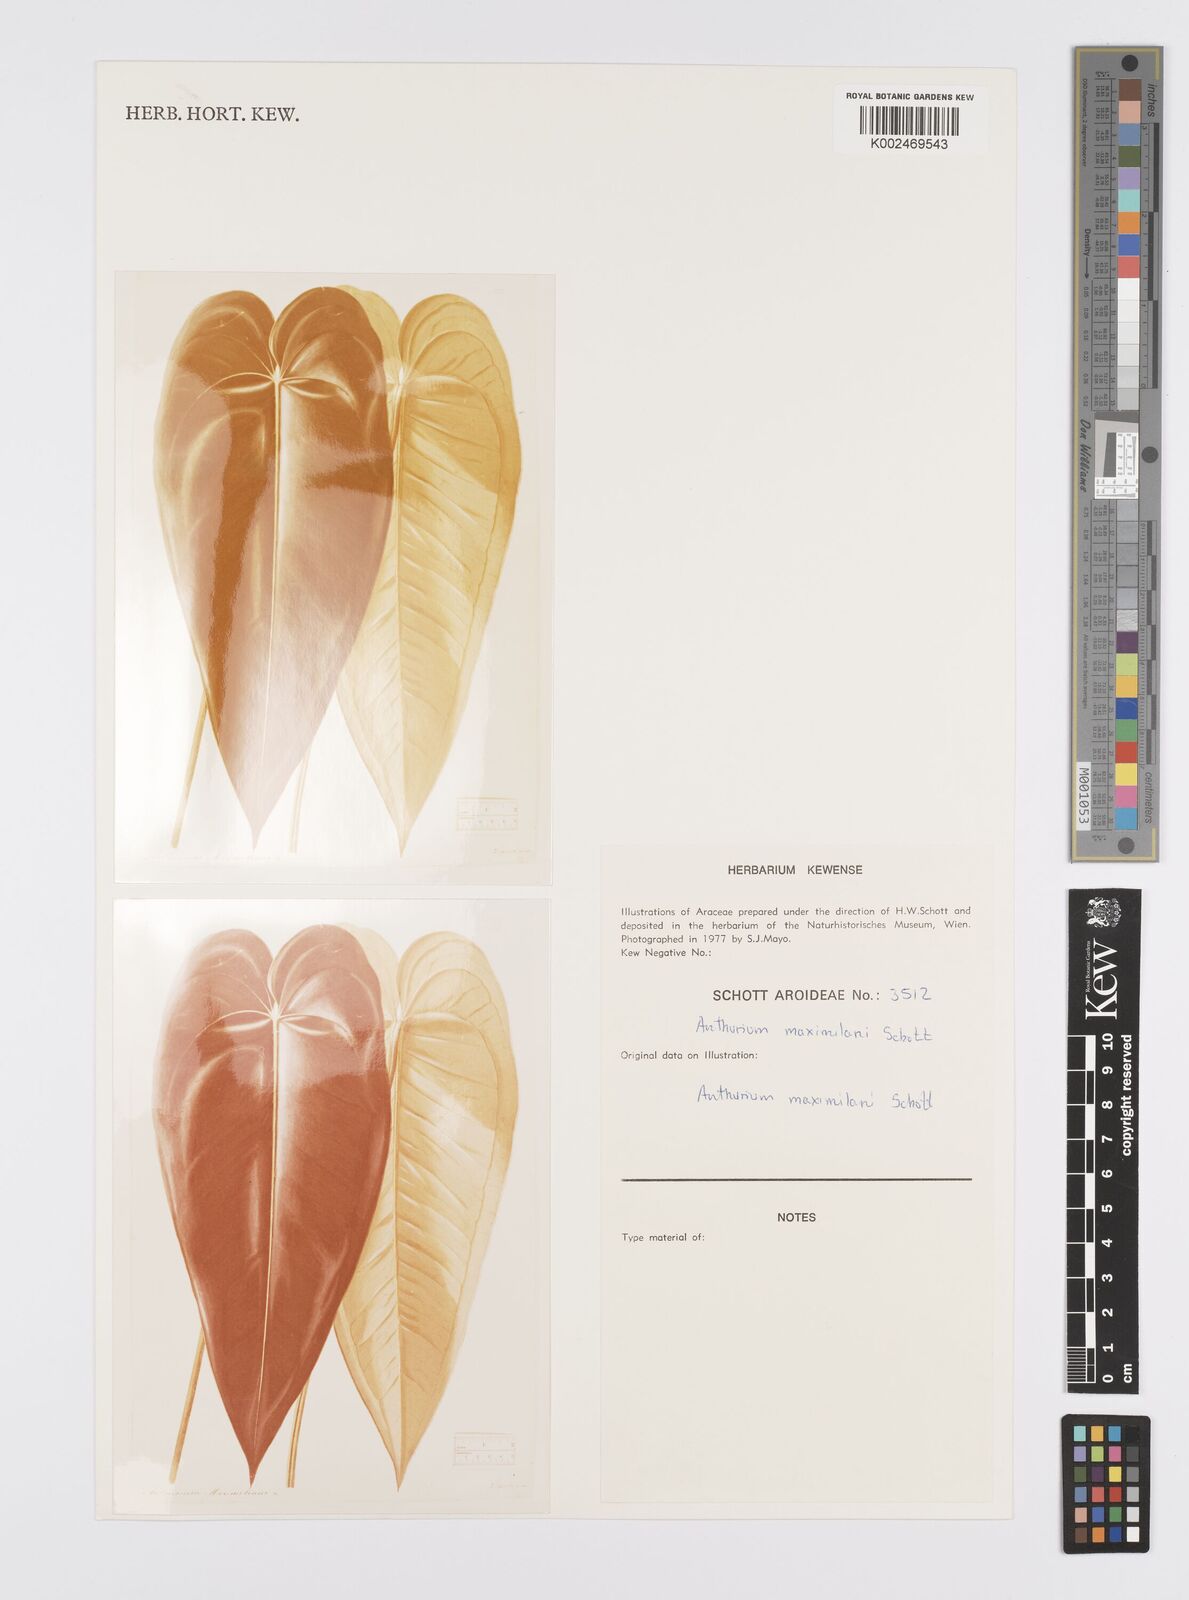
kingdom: Plantae
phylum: Tracheophyta
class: Liliopsida
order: Alismatales
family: Araceae
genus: Anthurium
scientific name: Anthurium augustinum
